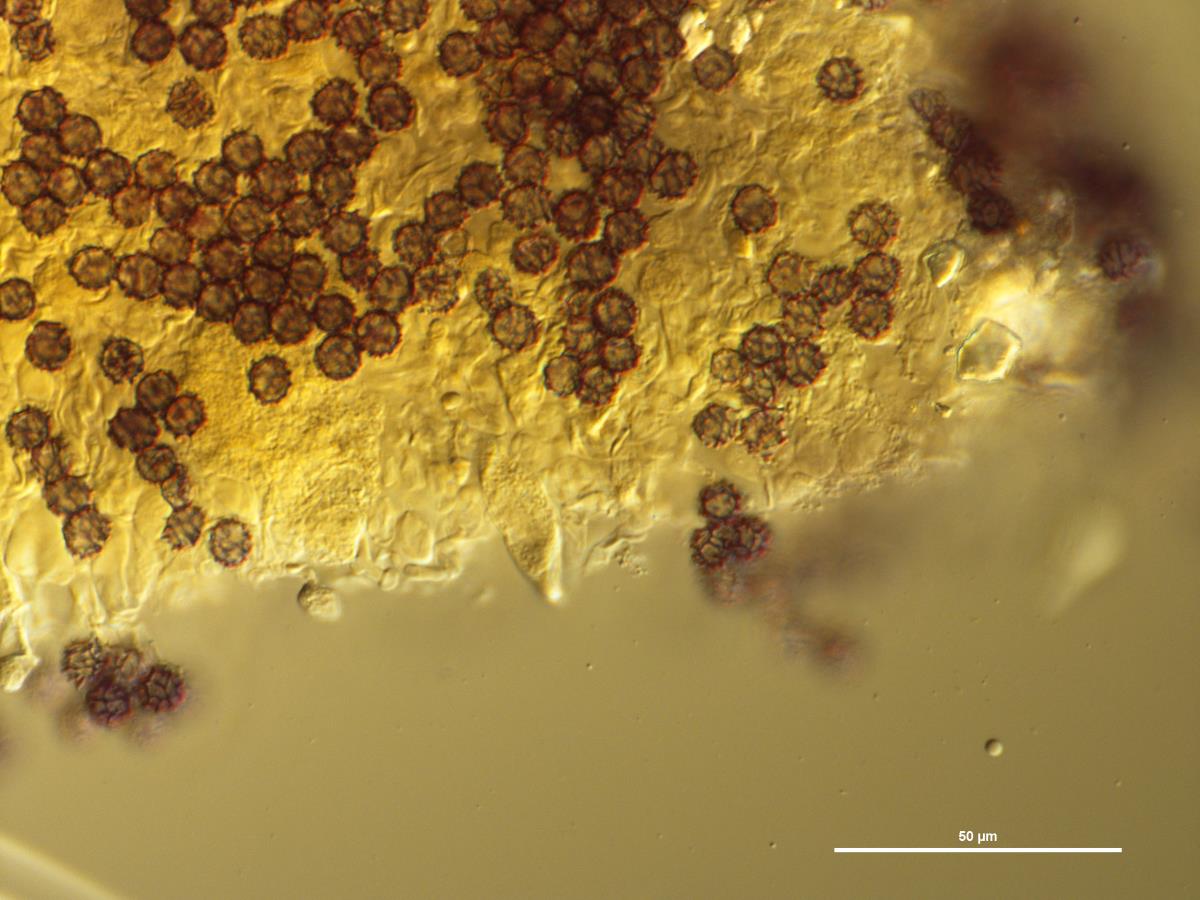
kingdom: Fungi
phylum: Basidiomycota
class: Agaricomycetes
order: Russulales
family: Russulaceae
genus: Lactarius
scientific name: Lactarius hepaticus
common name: Liver milkcap
